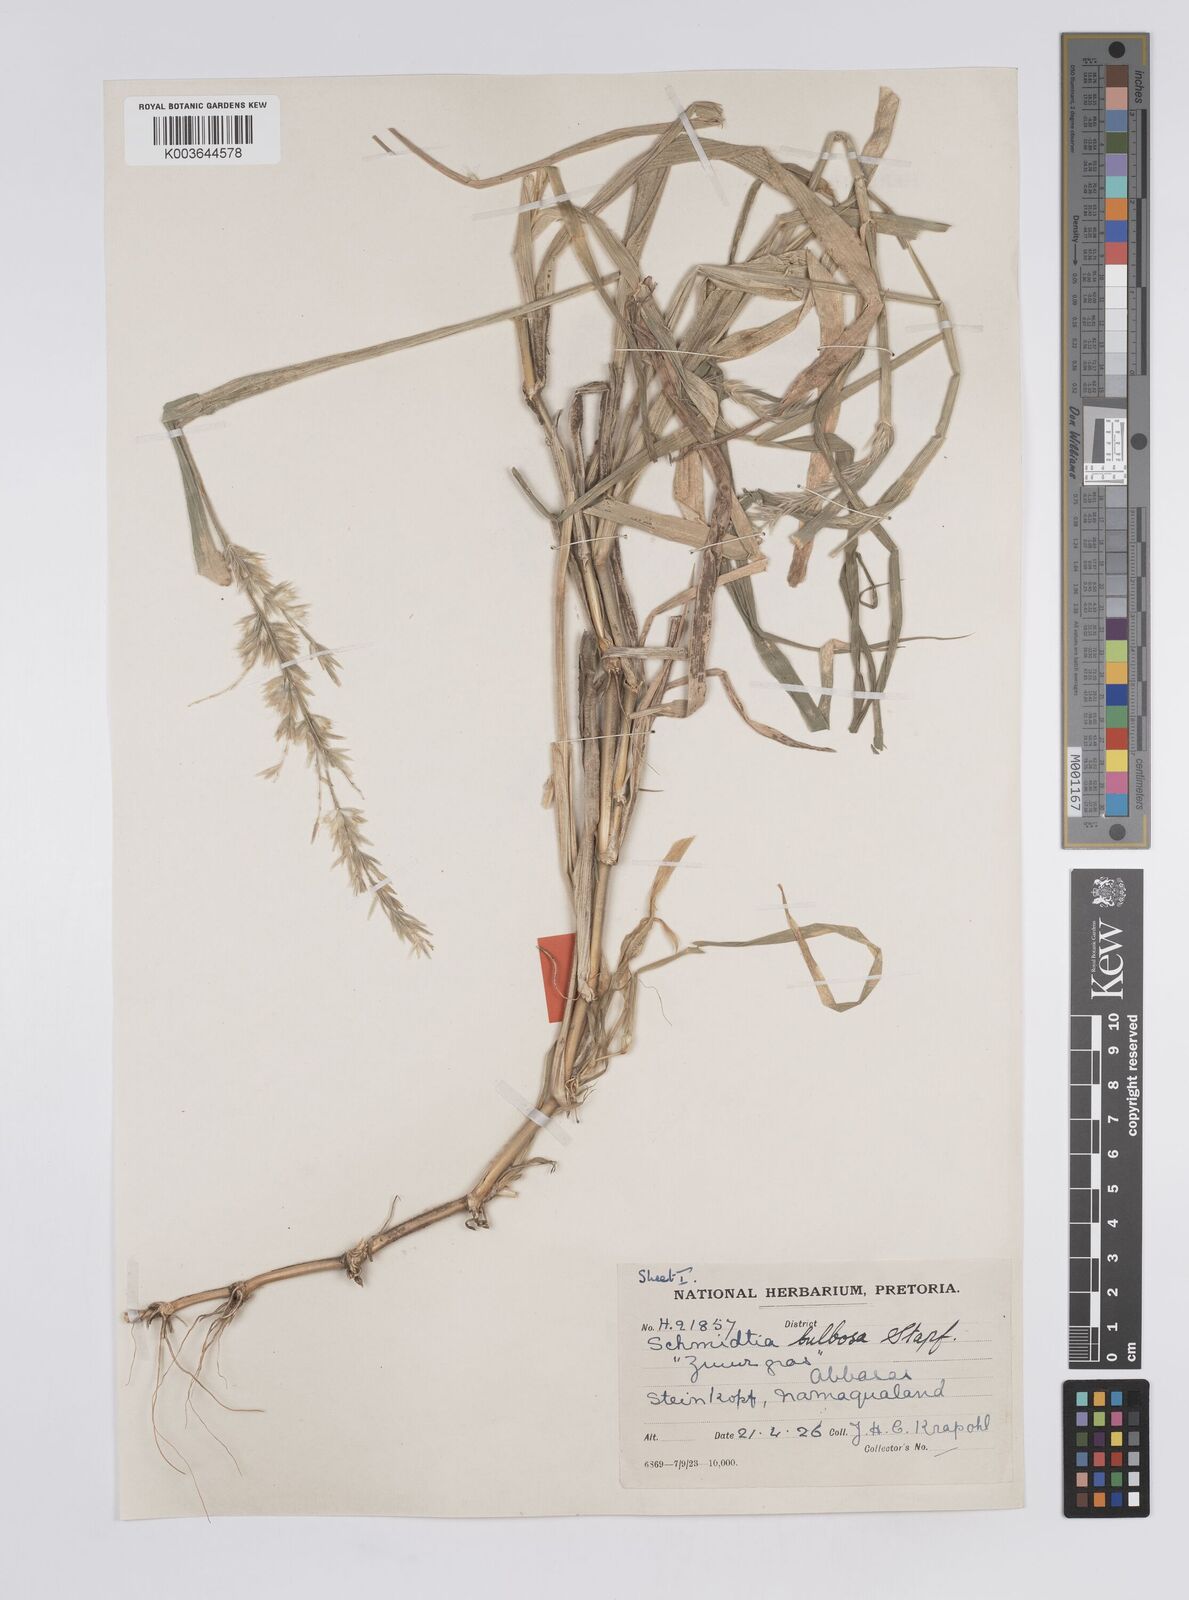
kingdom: Plantae
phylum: Tracheophyta
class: Liliopsida
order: Poales
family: Poaceae
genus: Schmidtia
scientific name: Schmidtia kalahariensis
